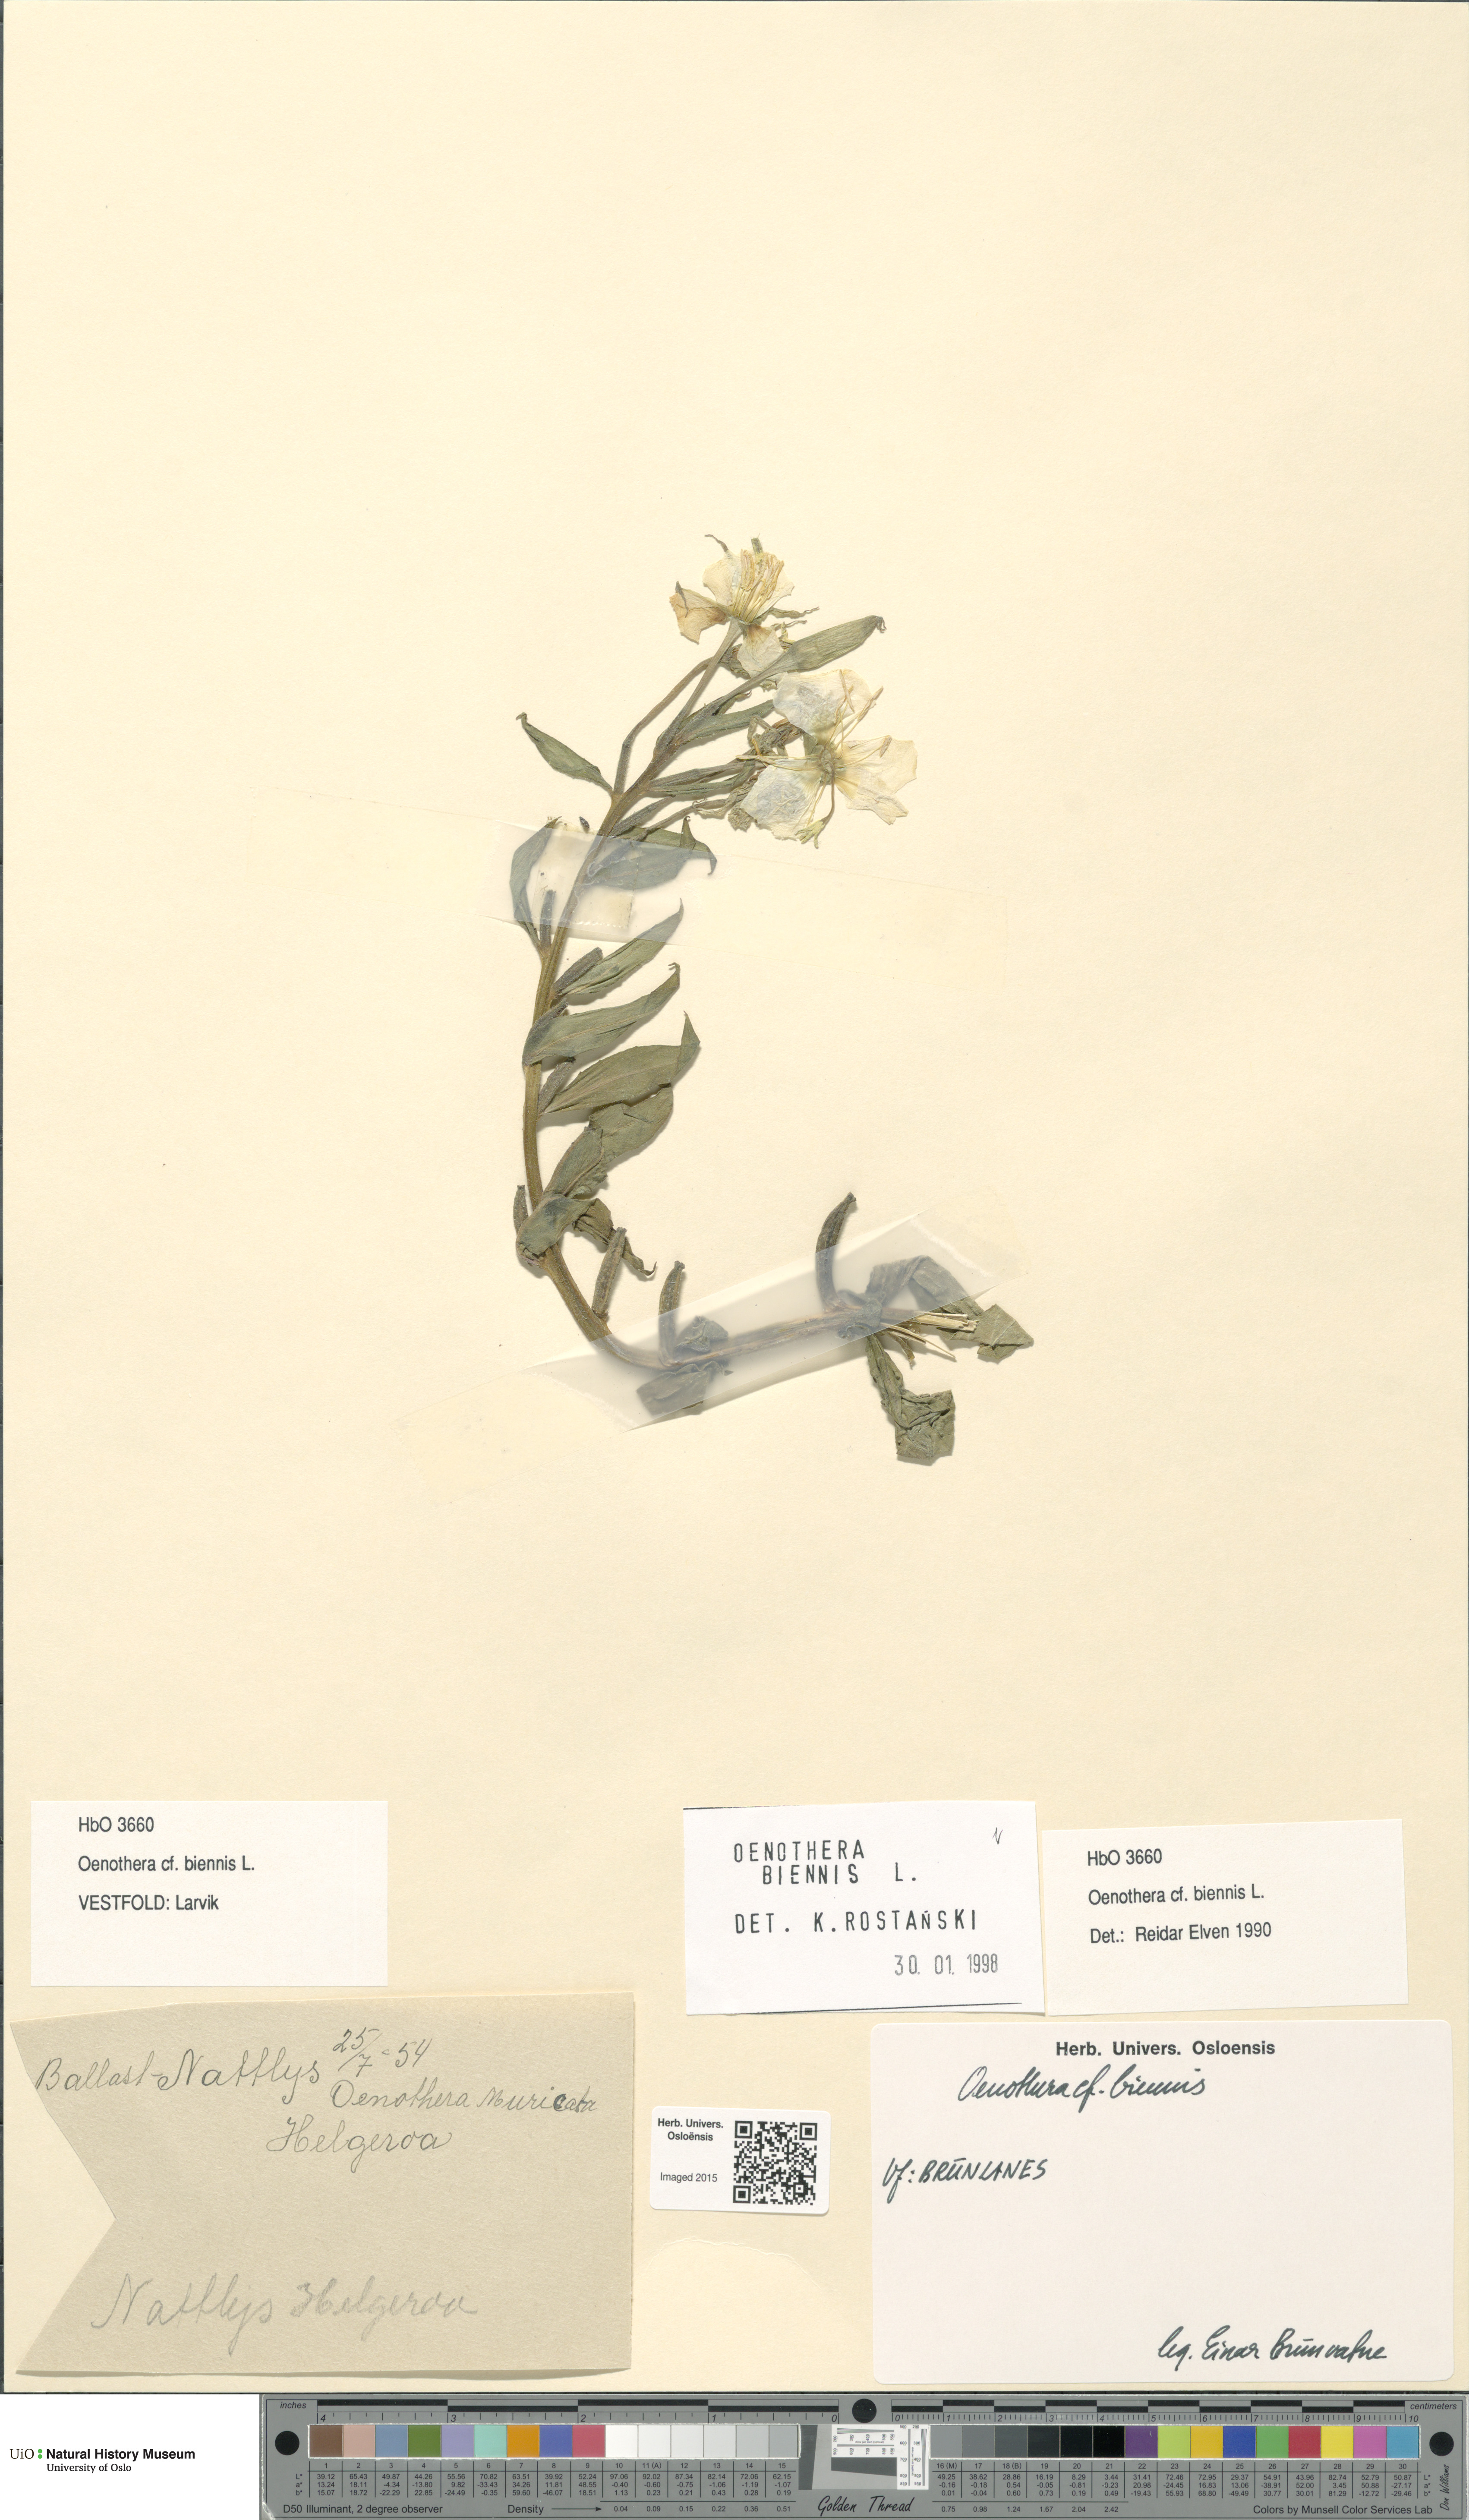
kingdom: Plantae
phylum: Tracheophyta
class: Magnoliopsida
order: Myrtales
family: Onagraceae
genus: Oenothera
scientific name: Oenothera biennis
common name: Common evening-primrose
